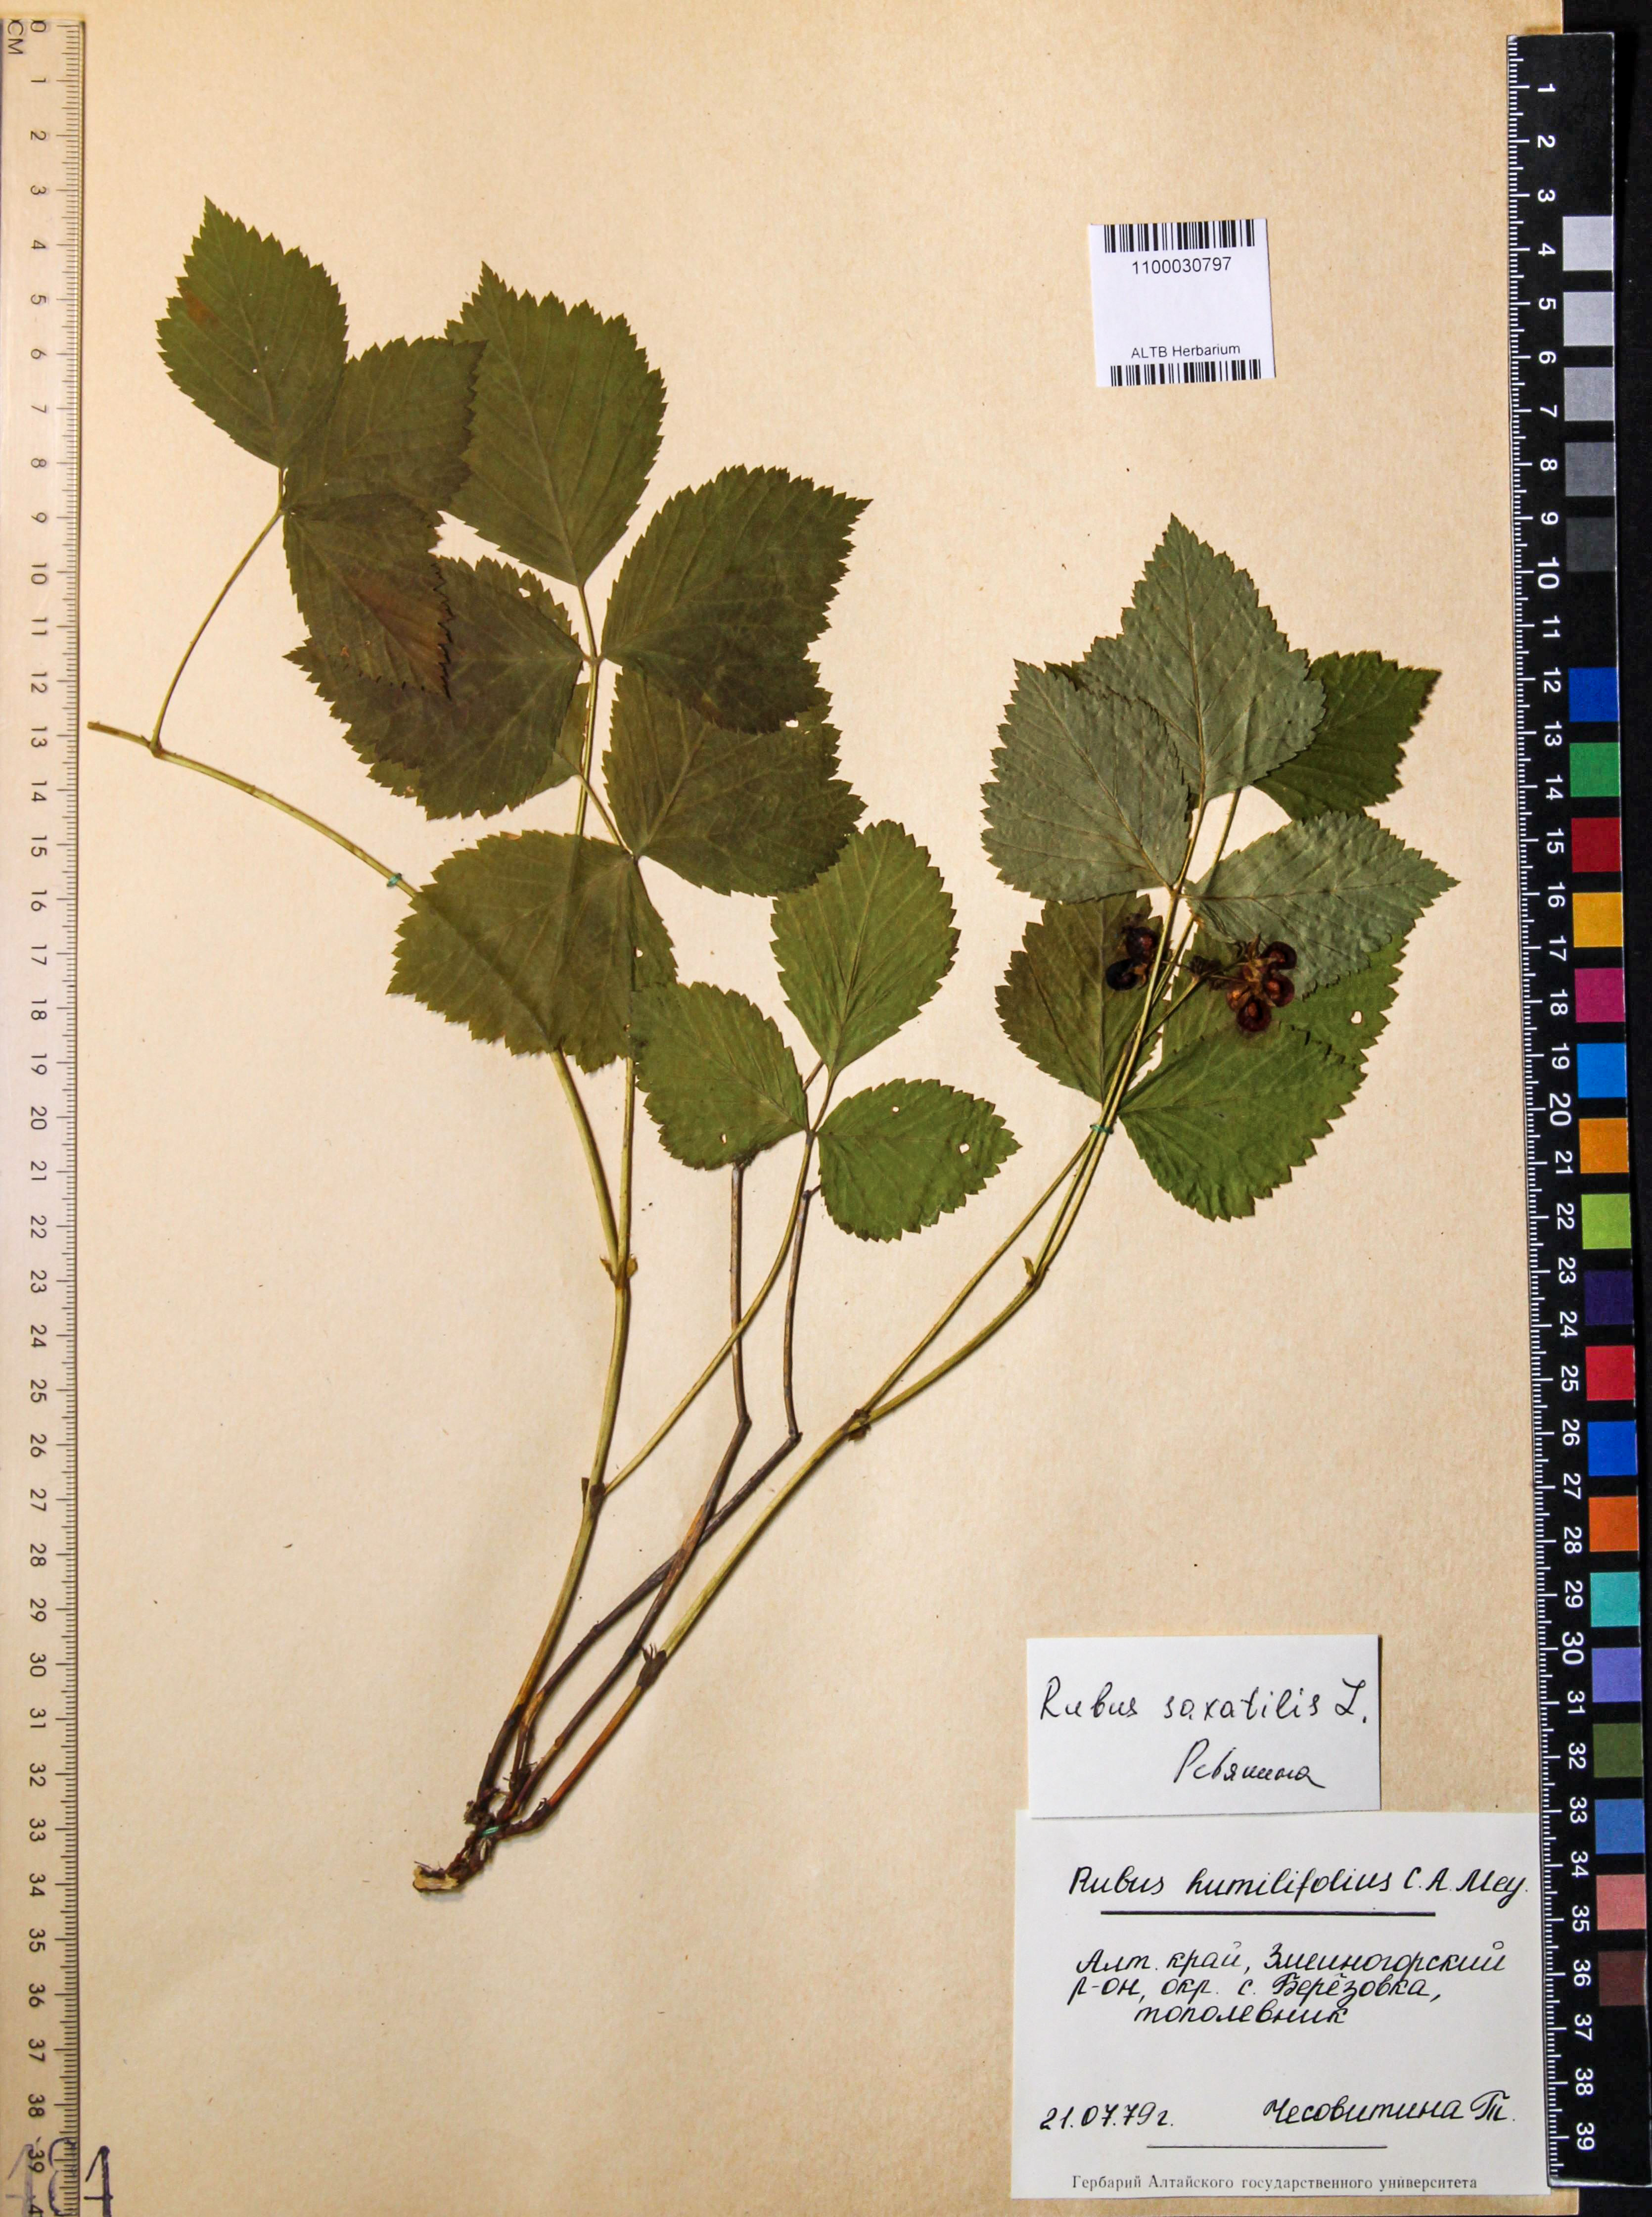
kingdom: Plantae
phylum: Tracheophyta
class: Magnoliopsida
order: Rosales
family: Rosaceae
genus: Rubus
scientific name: Rubus saxatilis
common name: Stone bramble
